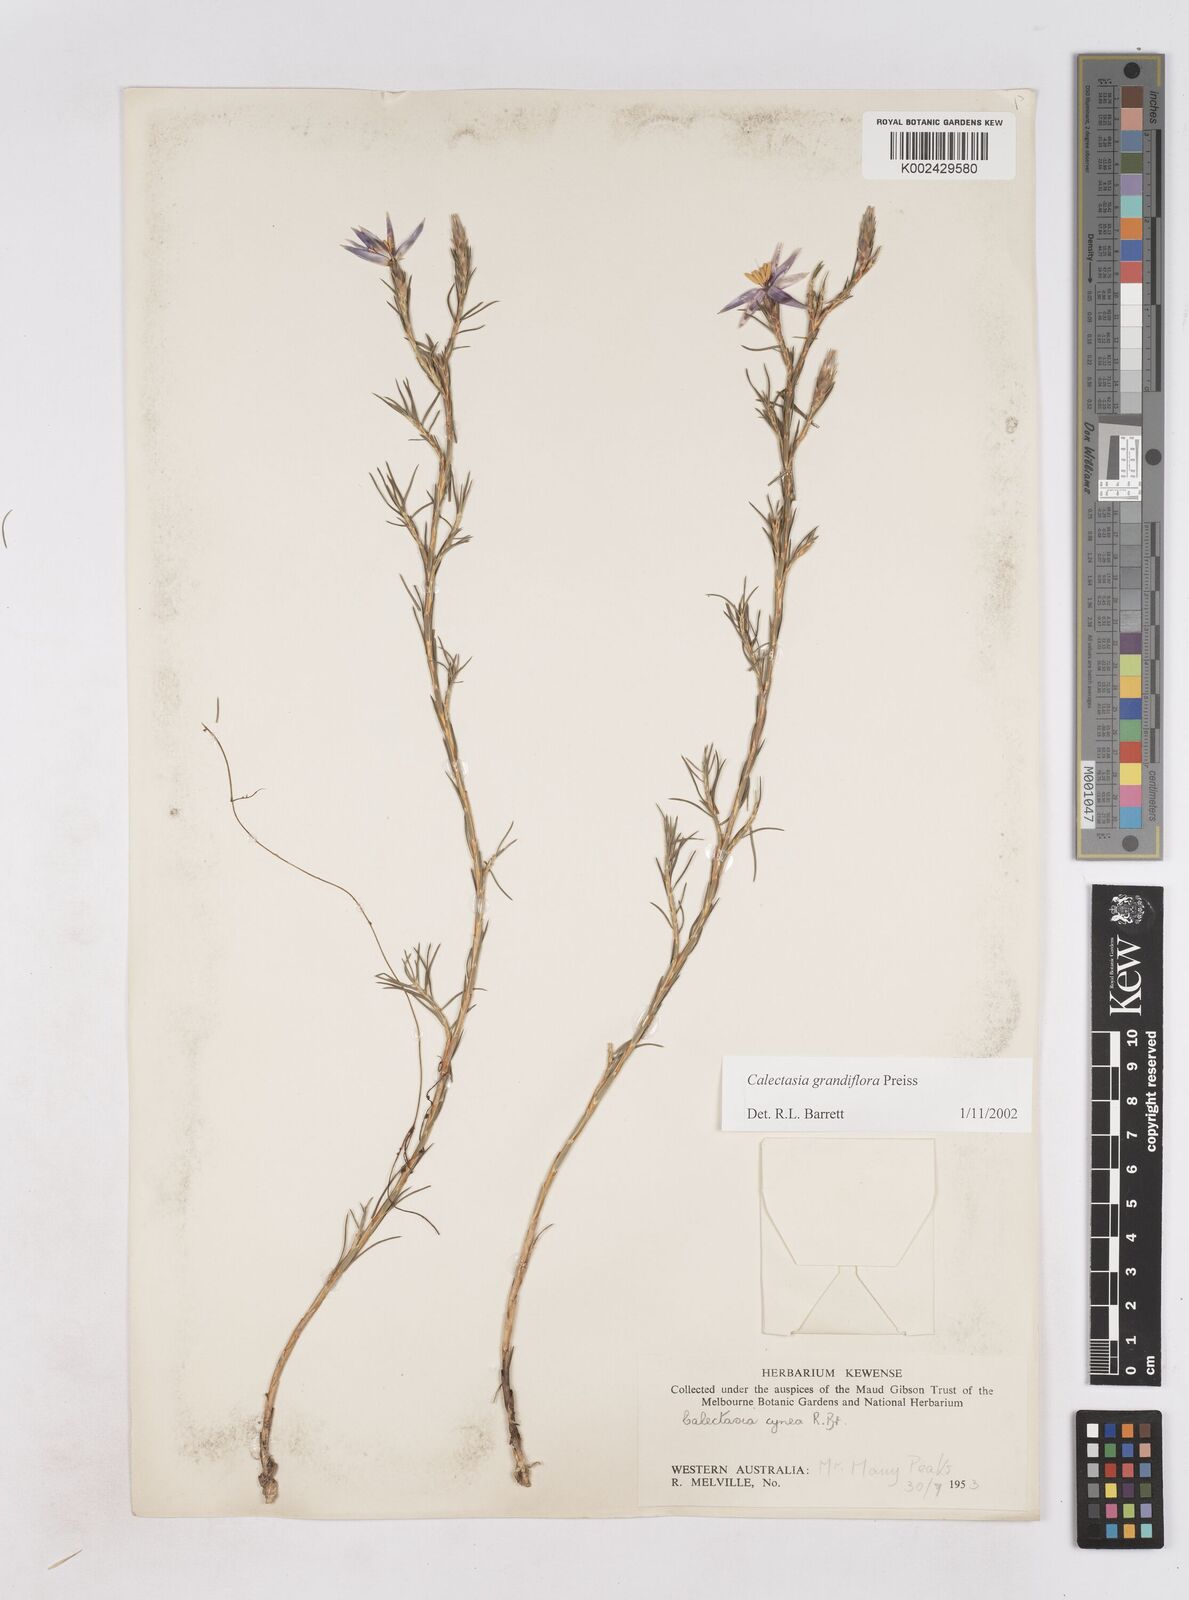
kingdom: Plantae
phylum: Tracheophyta
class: Liliopsida
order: Arecales
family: Dasypogonaceae
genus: Calectasia
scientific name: Calectasia grandiflora
